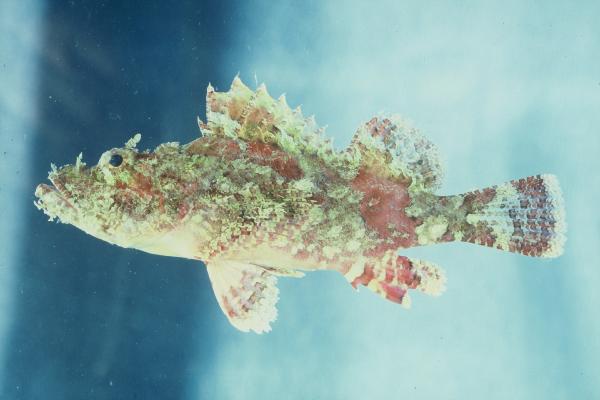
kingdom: Animalia
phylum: Chordata
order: Scorpaeniformes
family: Scorpaenidae
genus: Scorpaena
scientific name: Scorpaena
